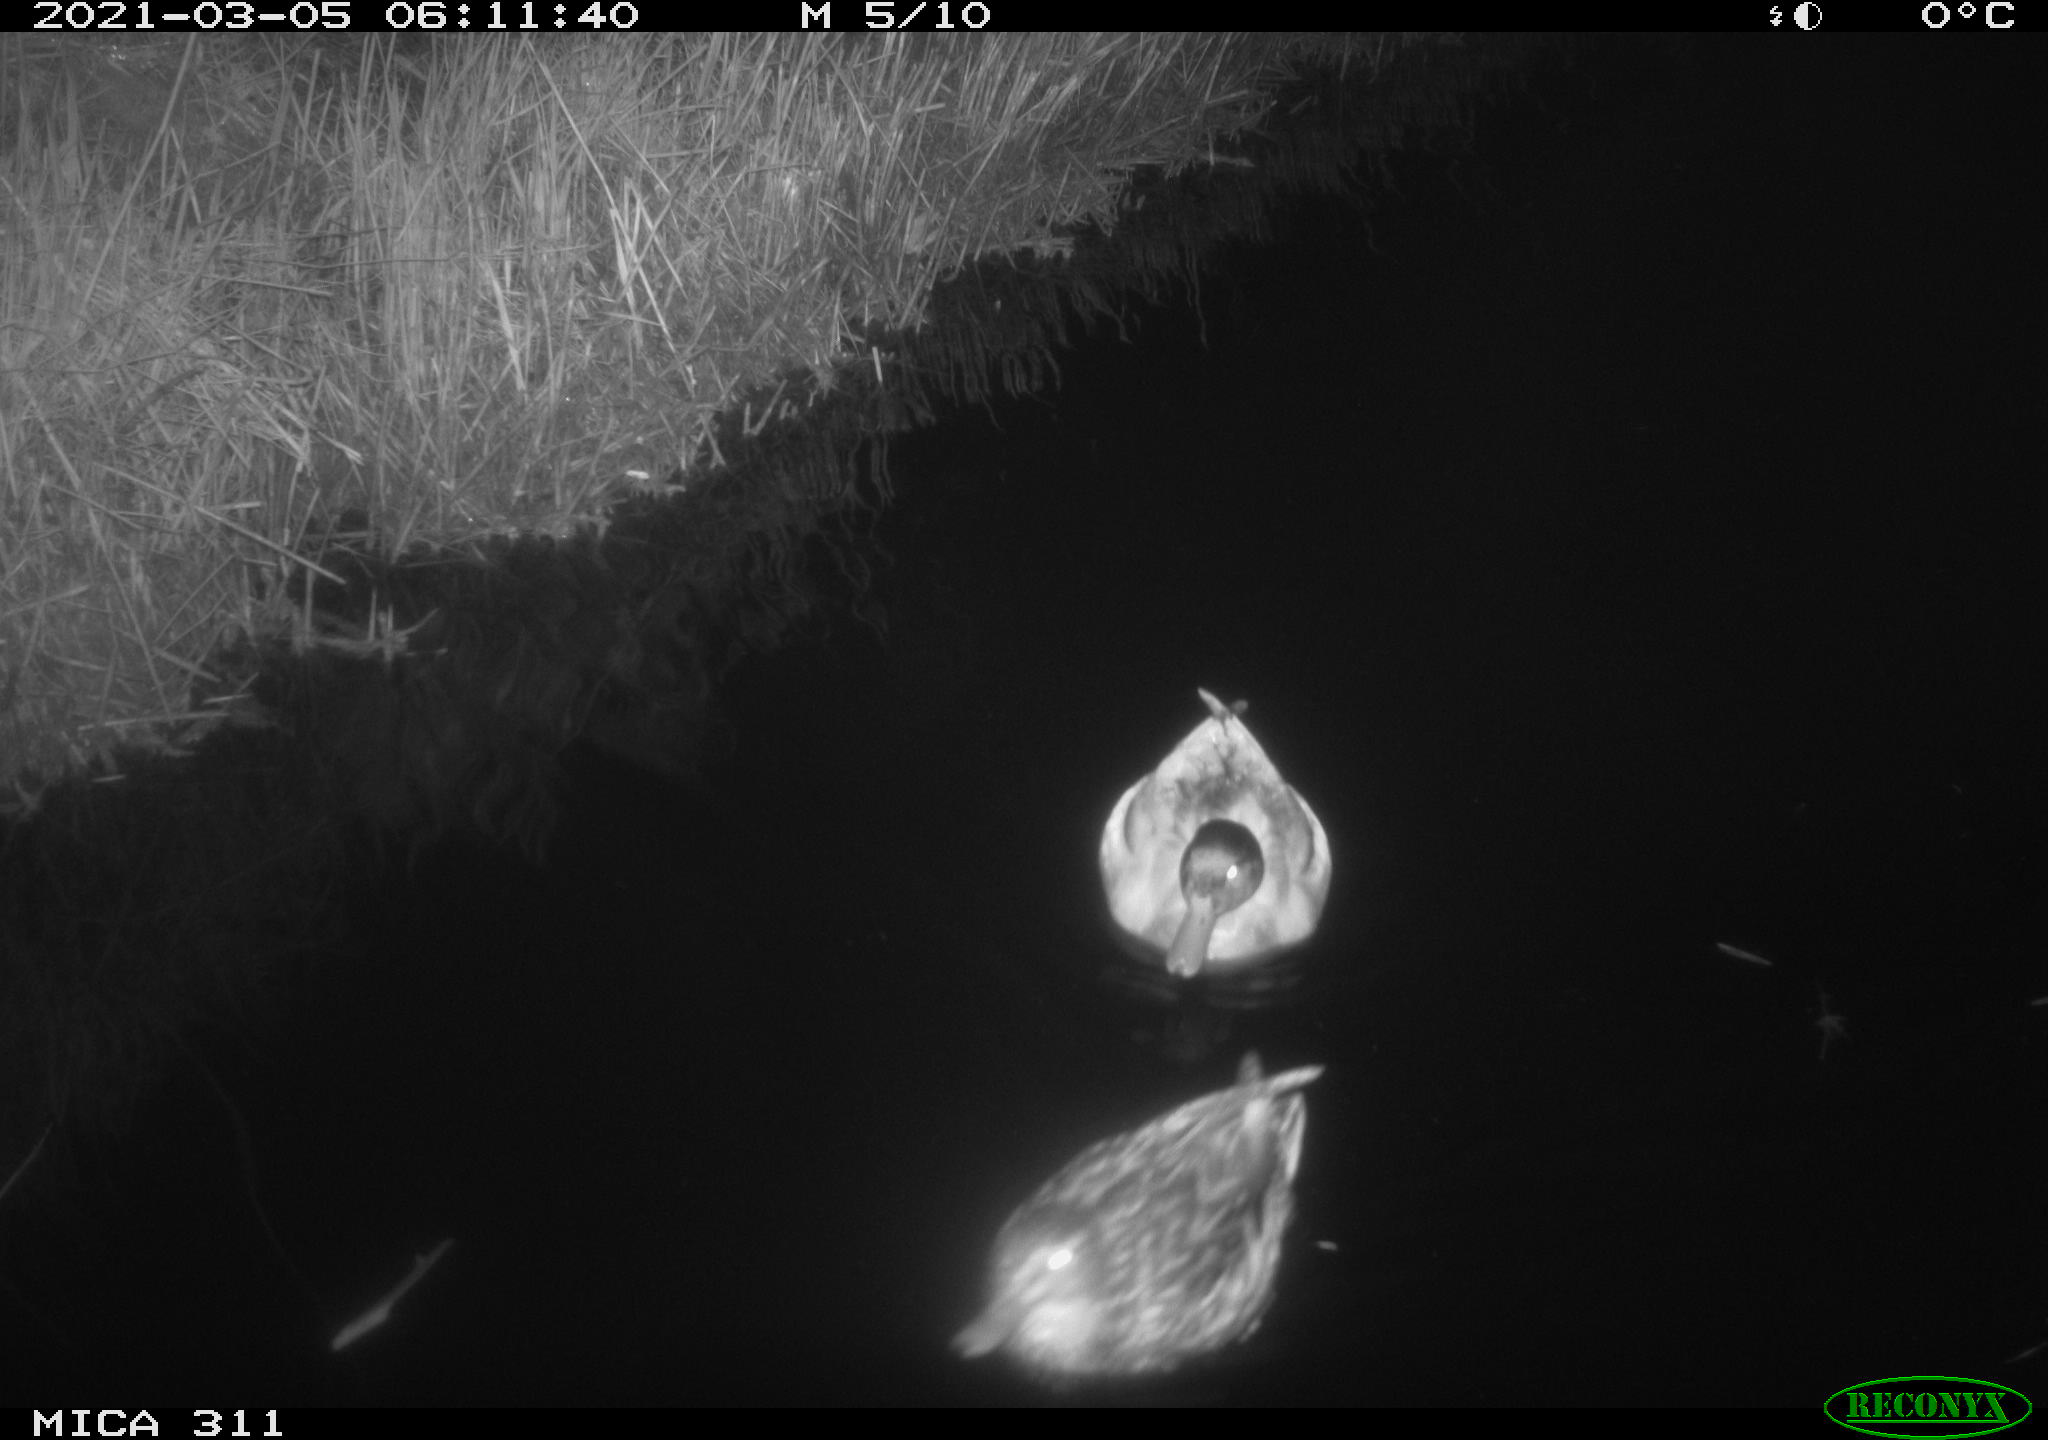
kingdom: Animalia
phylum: Chordata
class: Aves
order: Anseriformes
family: Anatidae
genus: Anas
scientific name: Anas
